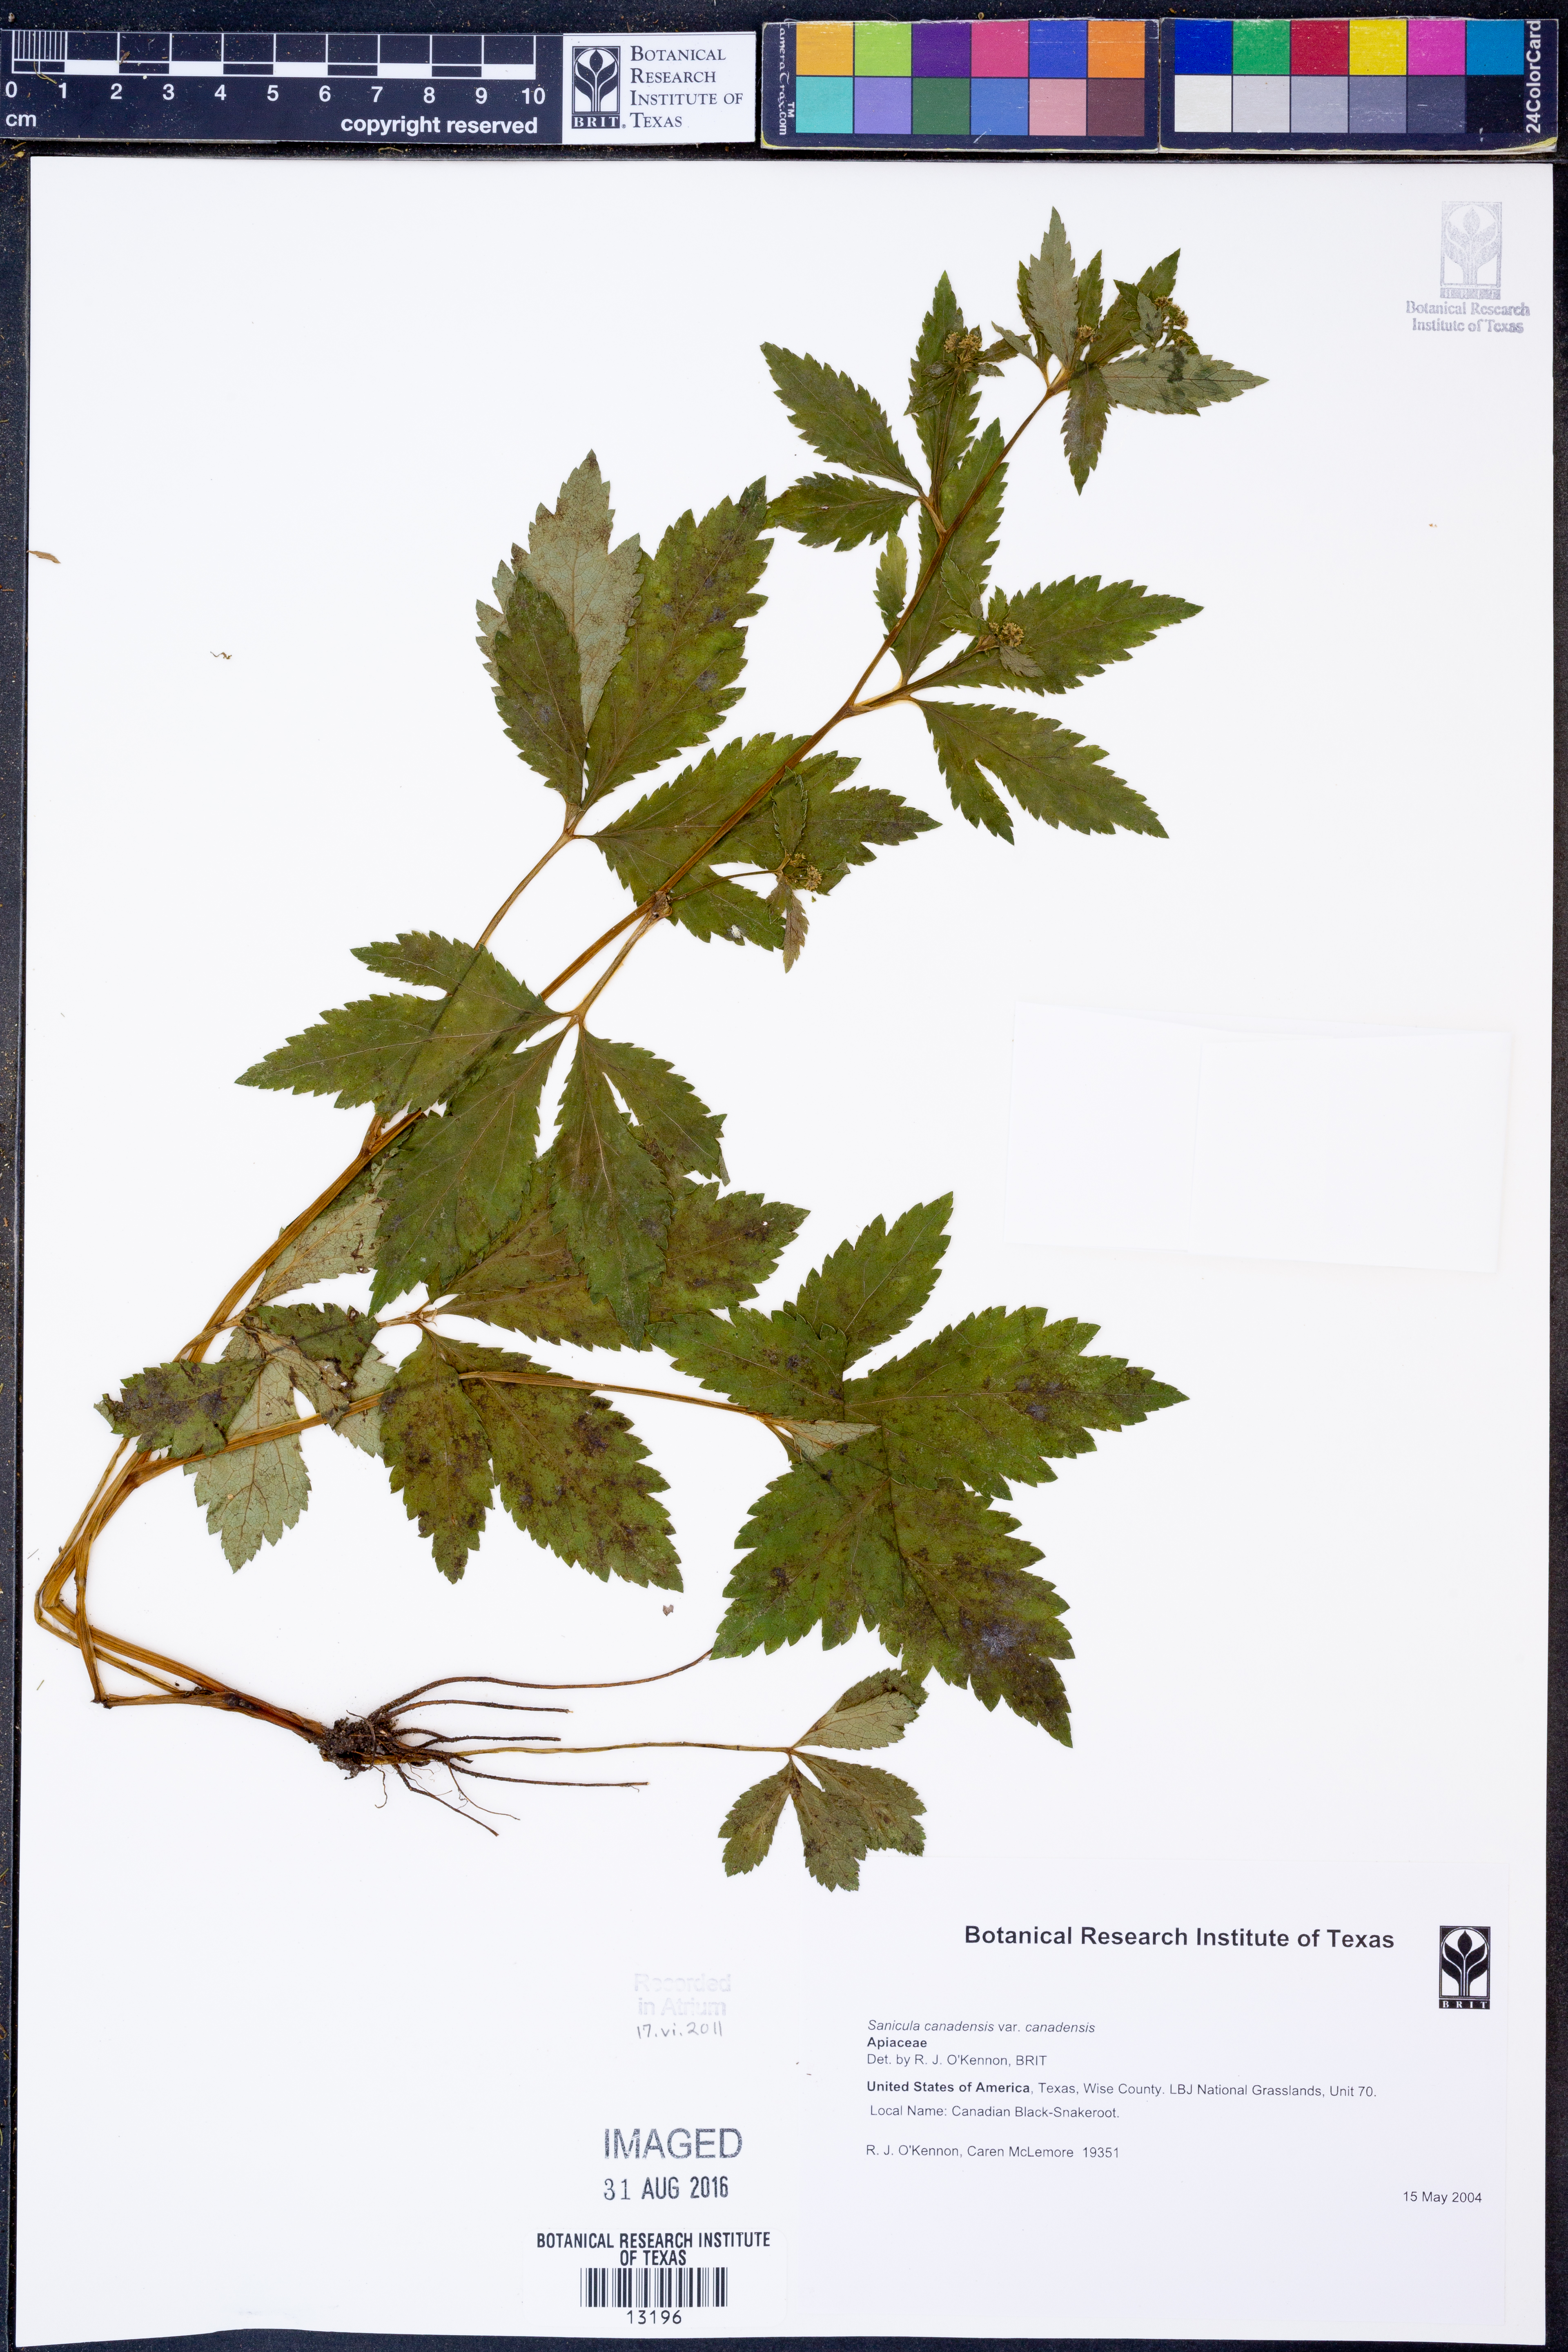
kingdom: Plantae
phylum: Tracheophyta
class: Magnoliopsida
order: Apiales
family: Apiaceae
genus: Sanicula
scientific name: Sanicula canadensis
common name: Canada sanicle
